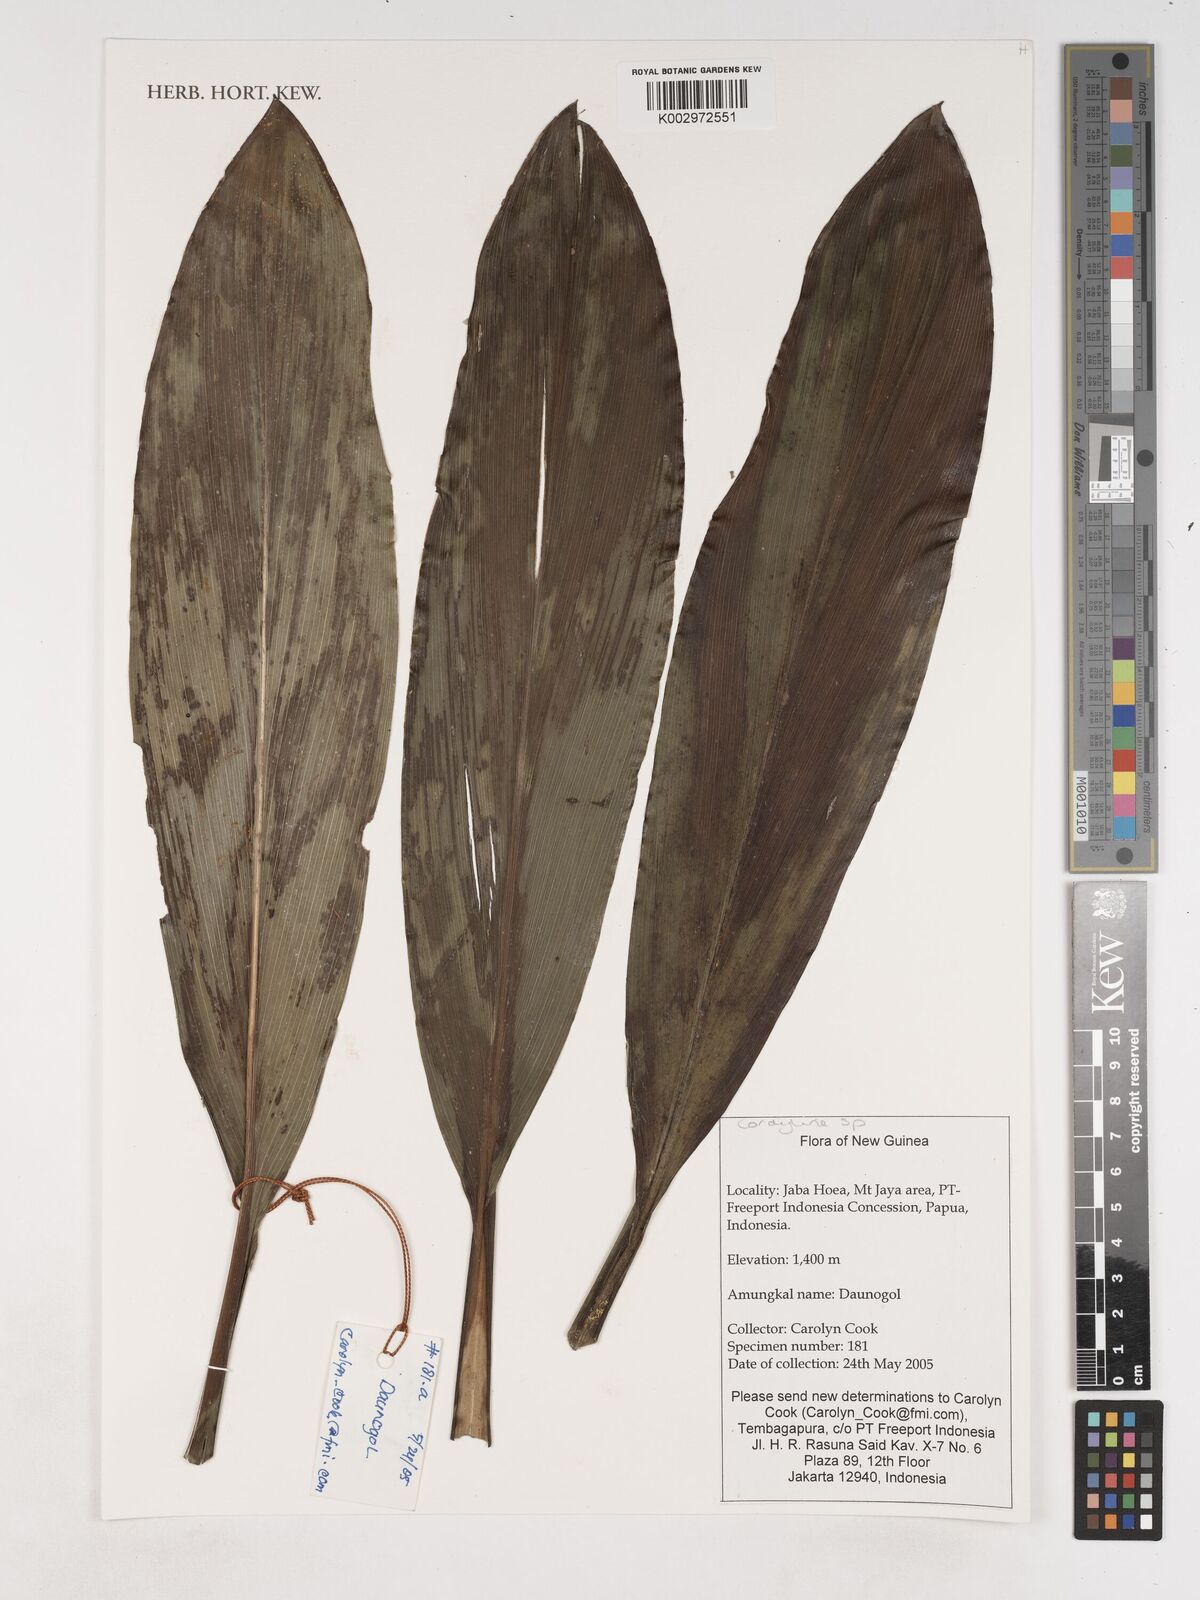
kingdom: Plantae
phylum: Tracheophyta
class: Liliopsida
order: Asparagales
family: Asparagaceae
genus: Cordyline
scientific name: Cordyline
